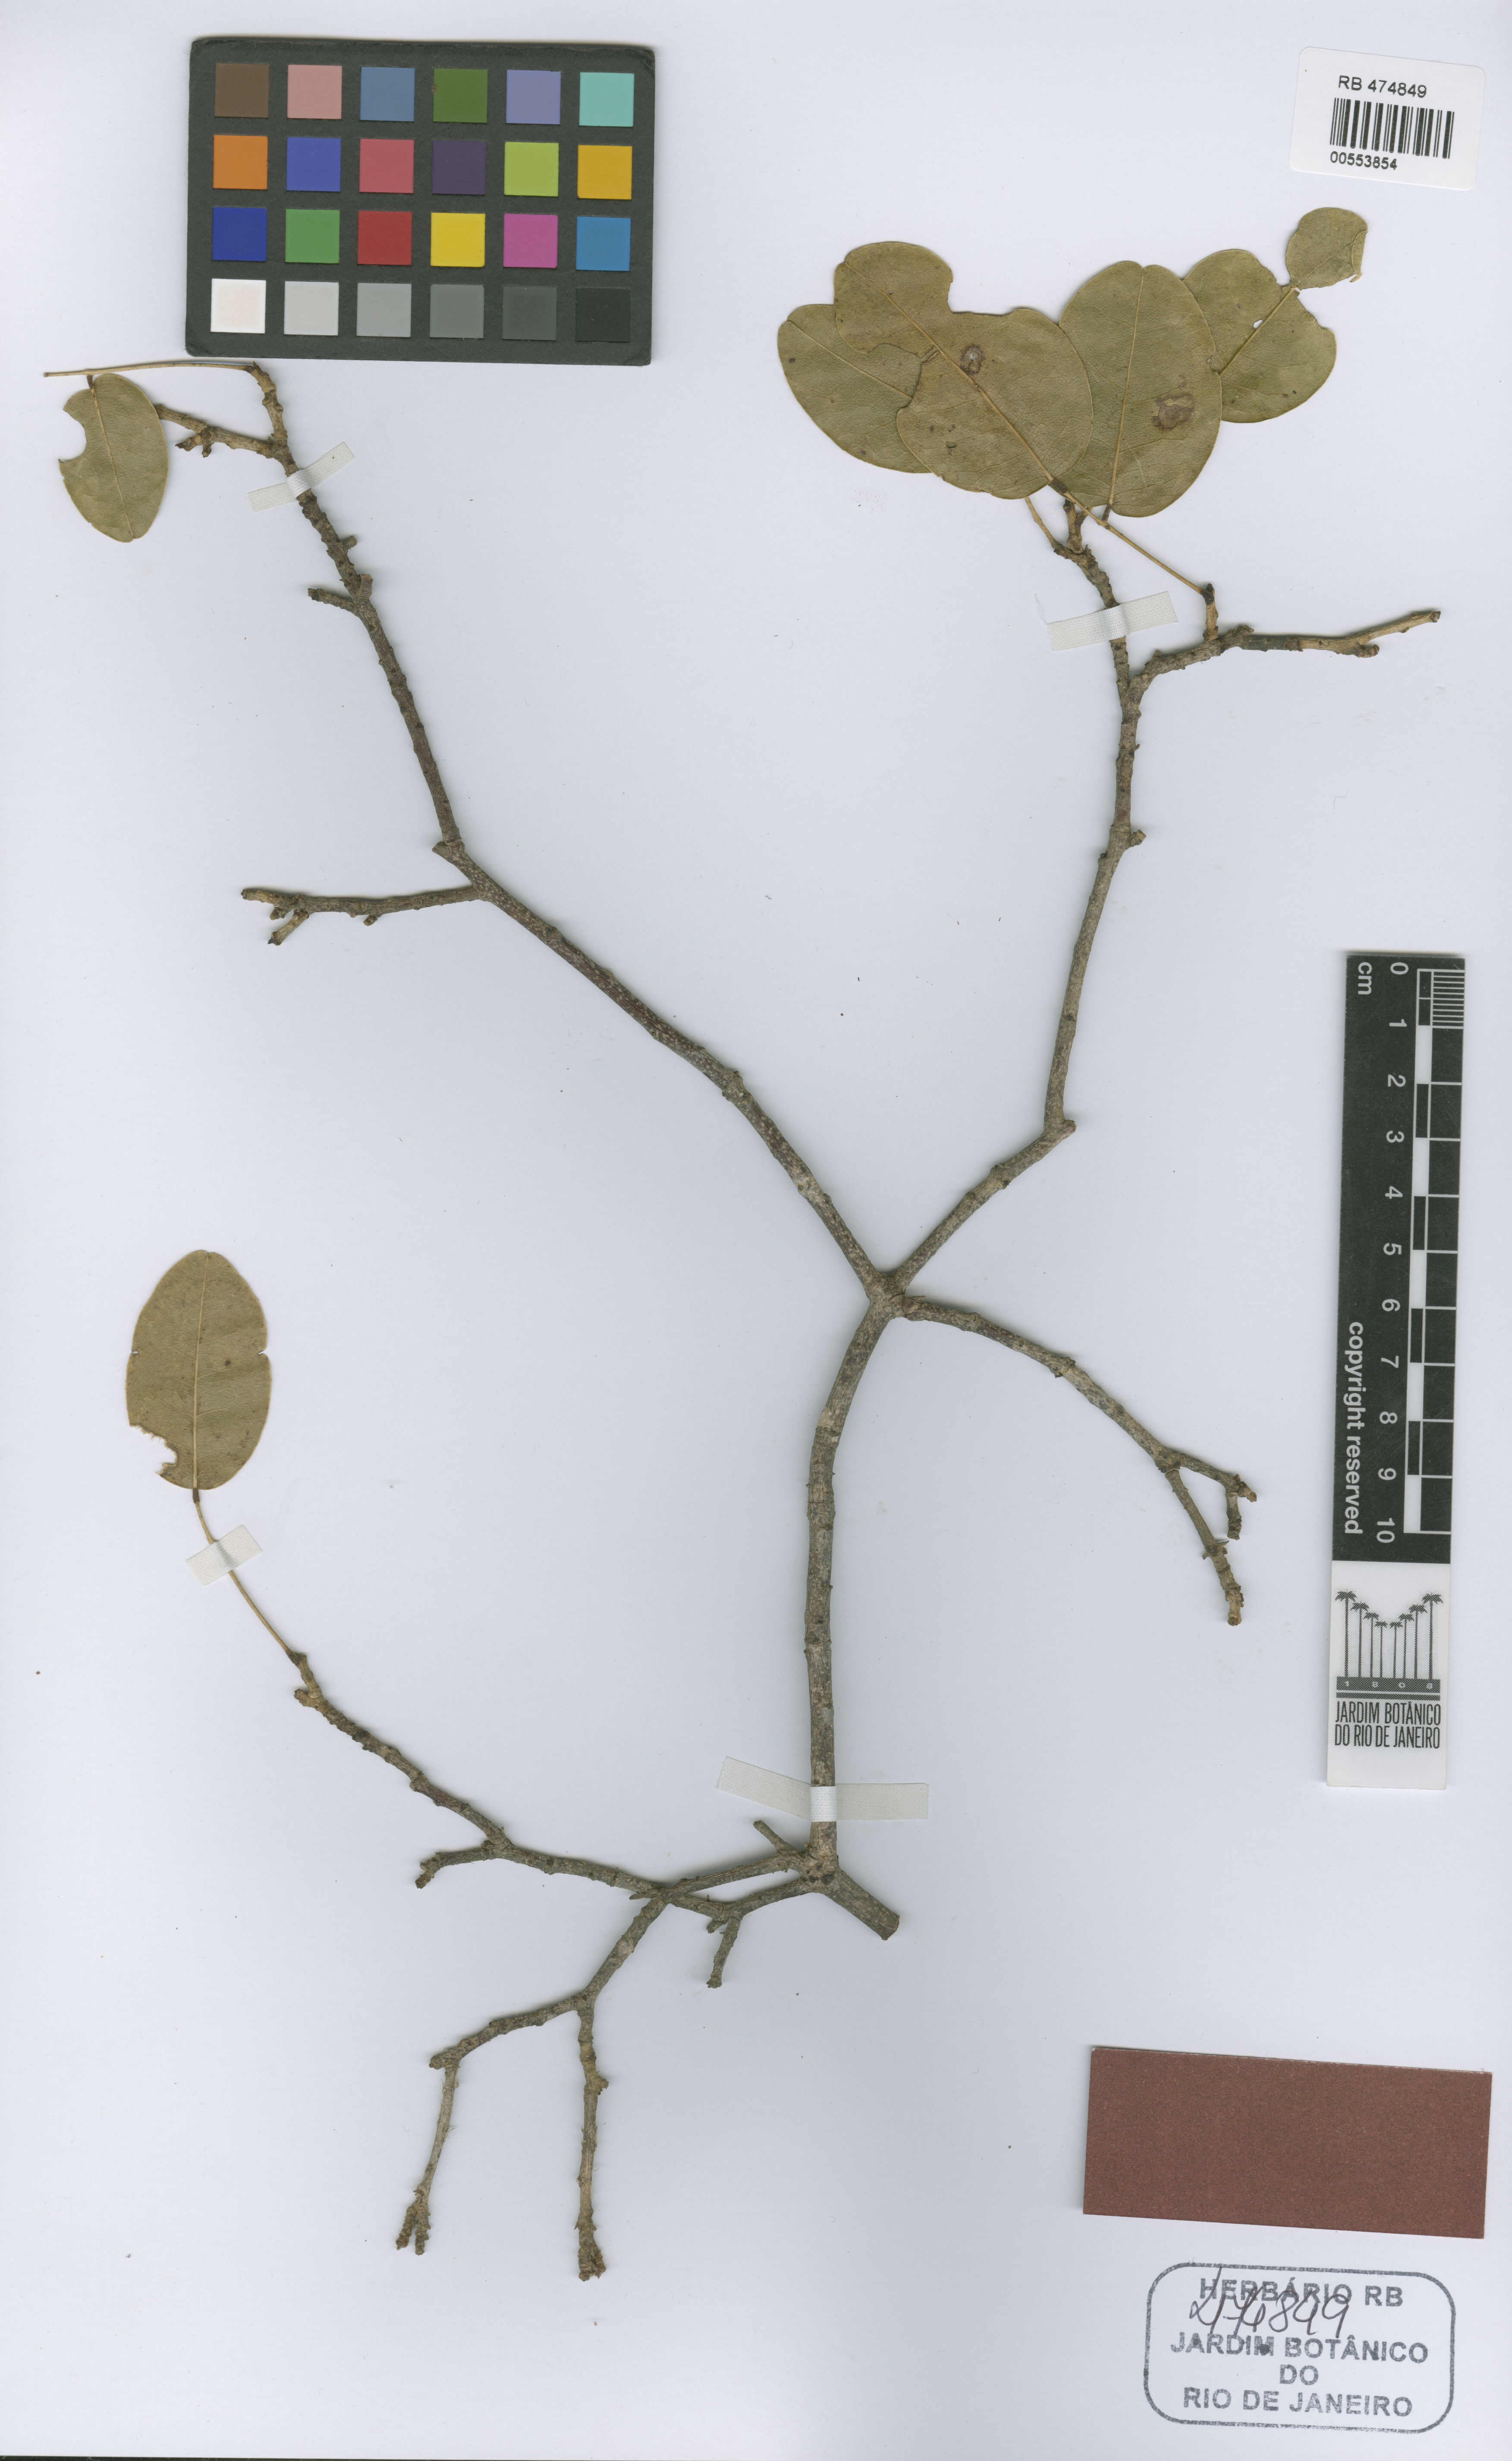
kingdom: Plantae
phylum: Tracheophyta
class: Magnoliopsida
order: Fabales
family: Fabaceae
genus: Luetzelburgia
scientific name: Luetzelburgia harleyi
